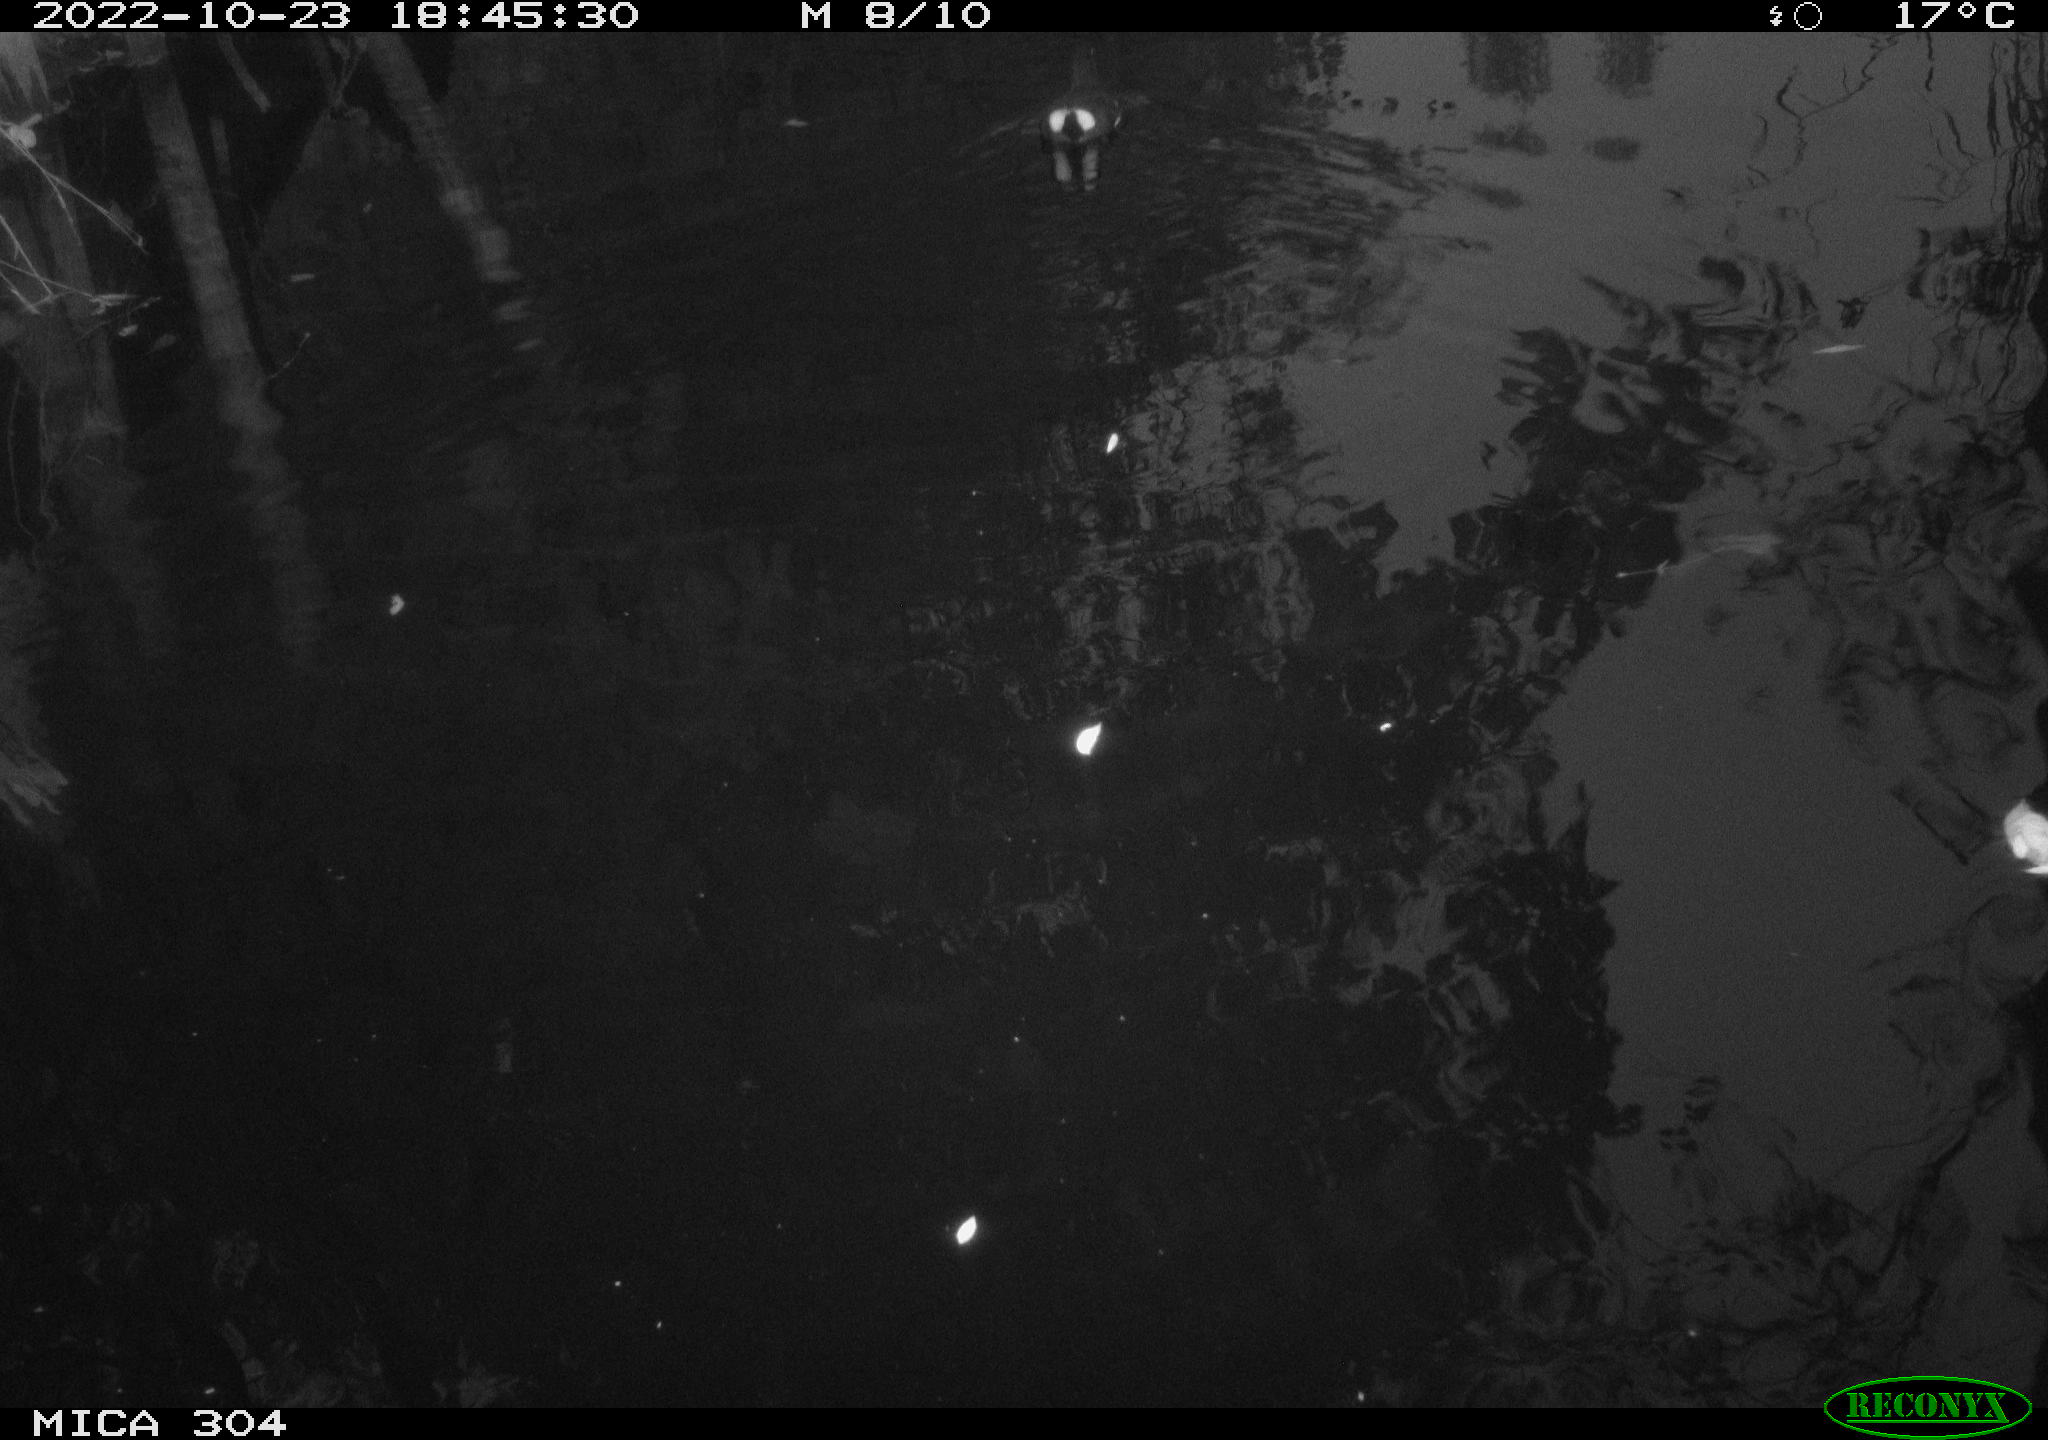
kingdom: Animalia
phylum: Chordata
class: Aves
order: Gruiformes
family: Rallidae
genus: Gallinula
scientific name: Gallinula chloropus
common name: Common moorhen
